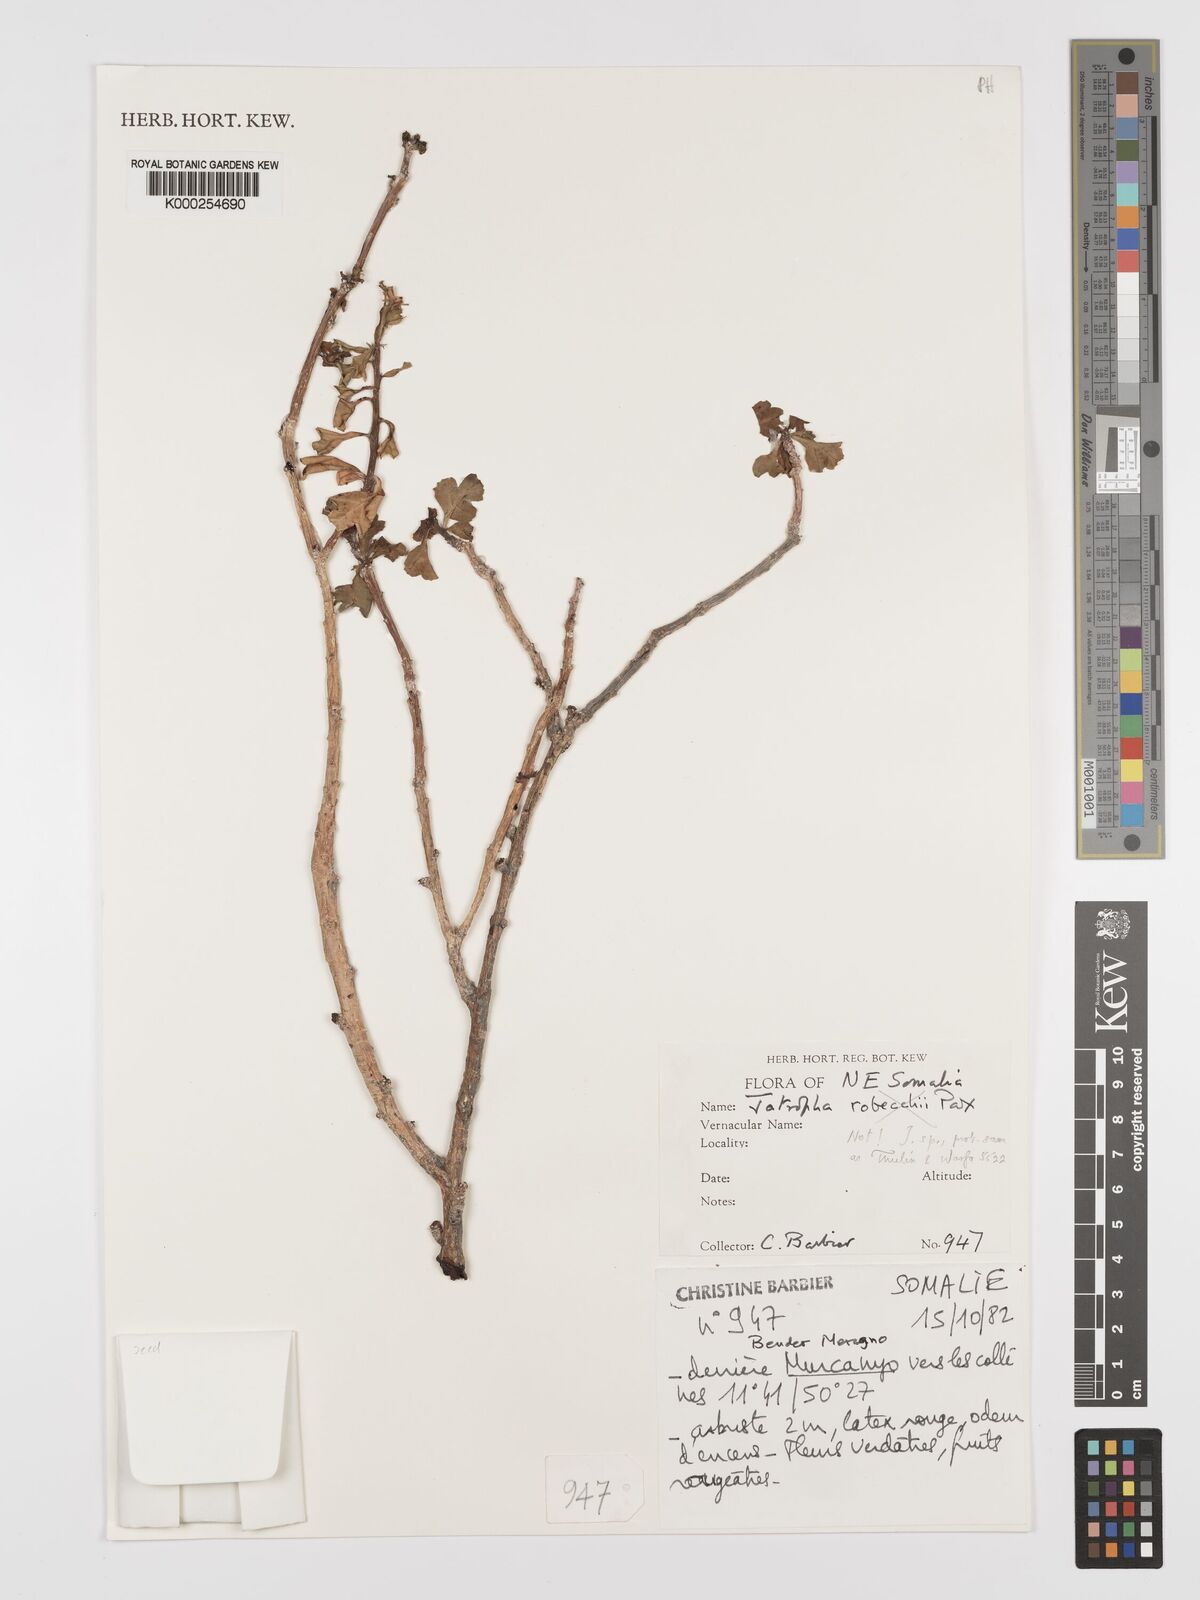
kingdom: Plantae
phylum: Tracheophyta
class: Magnoliopsida
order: Malpighiales
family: Euphorbiaceae
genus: Jatropha
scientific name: Jatropha robecchii
